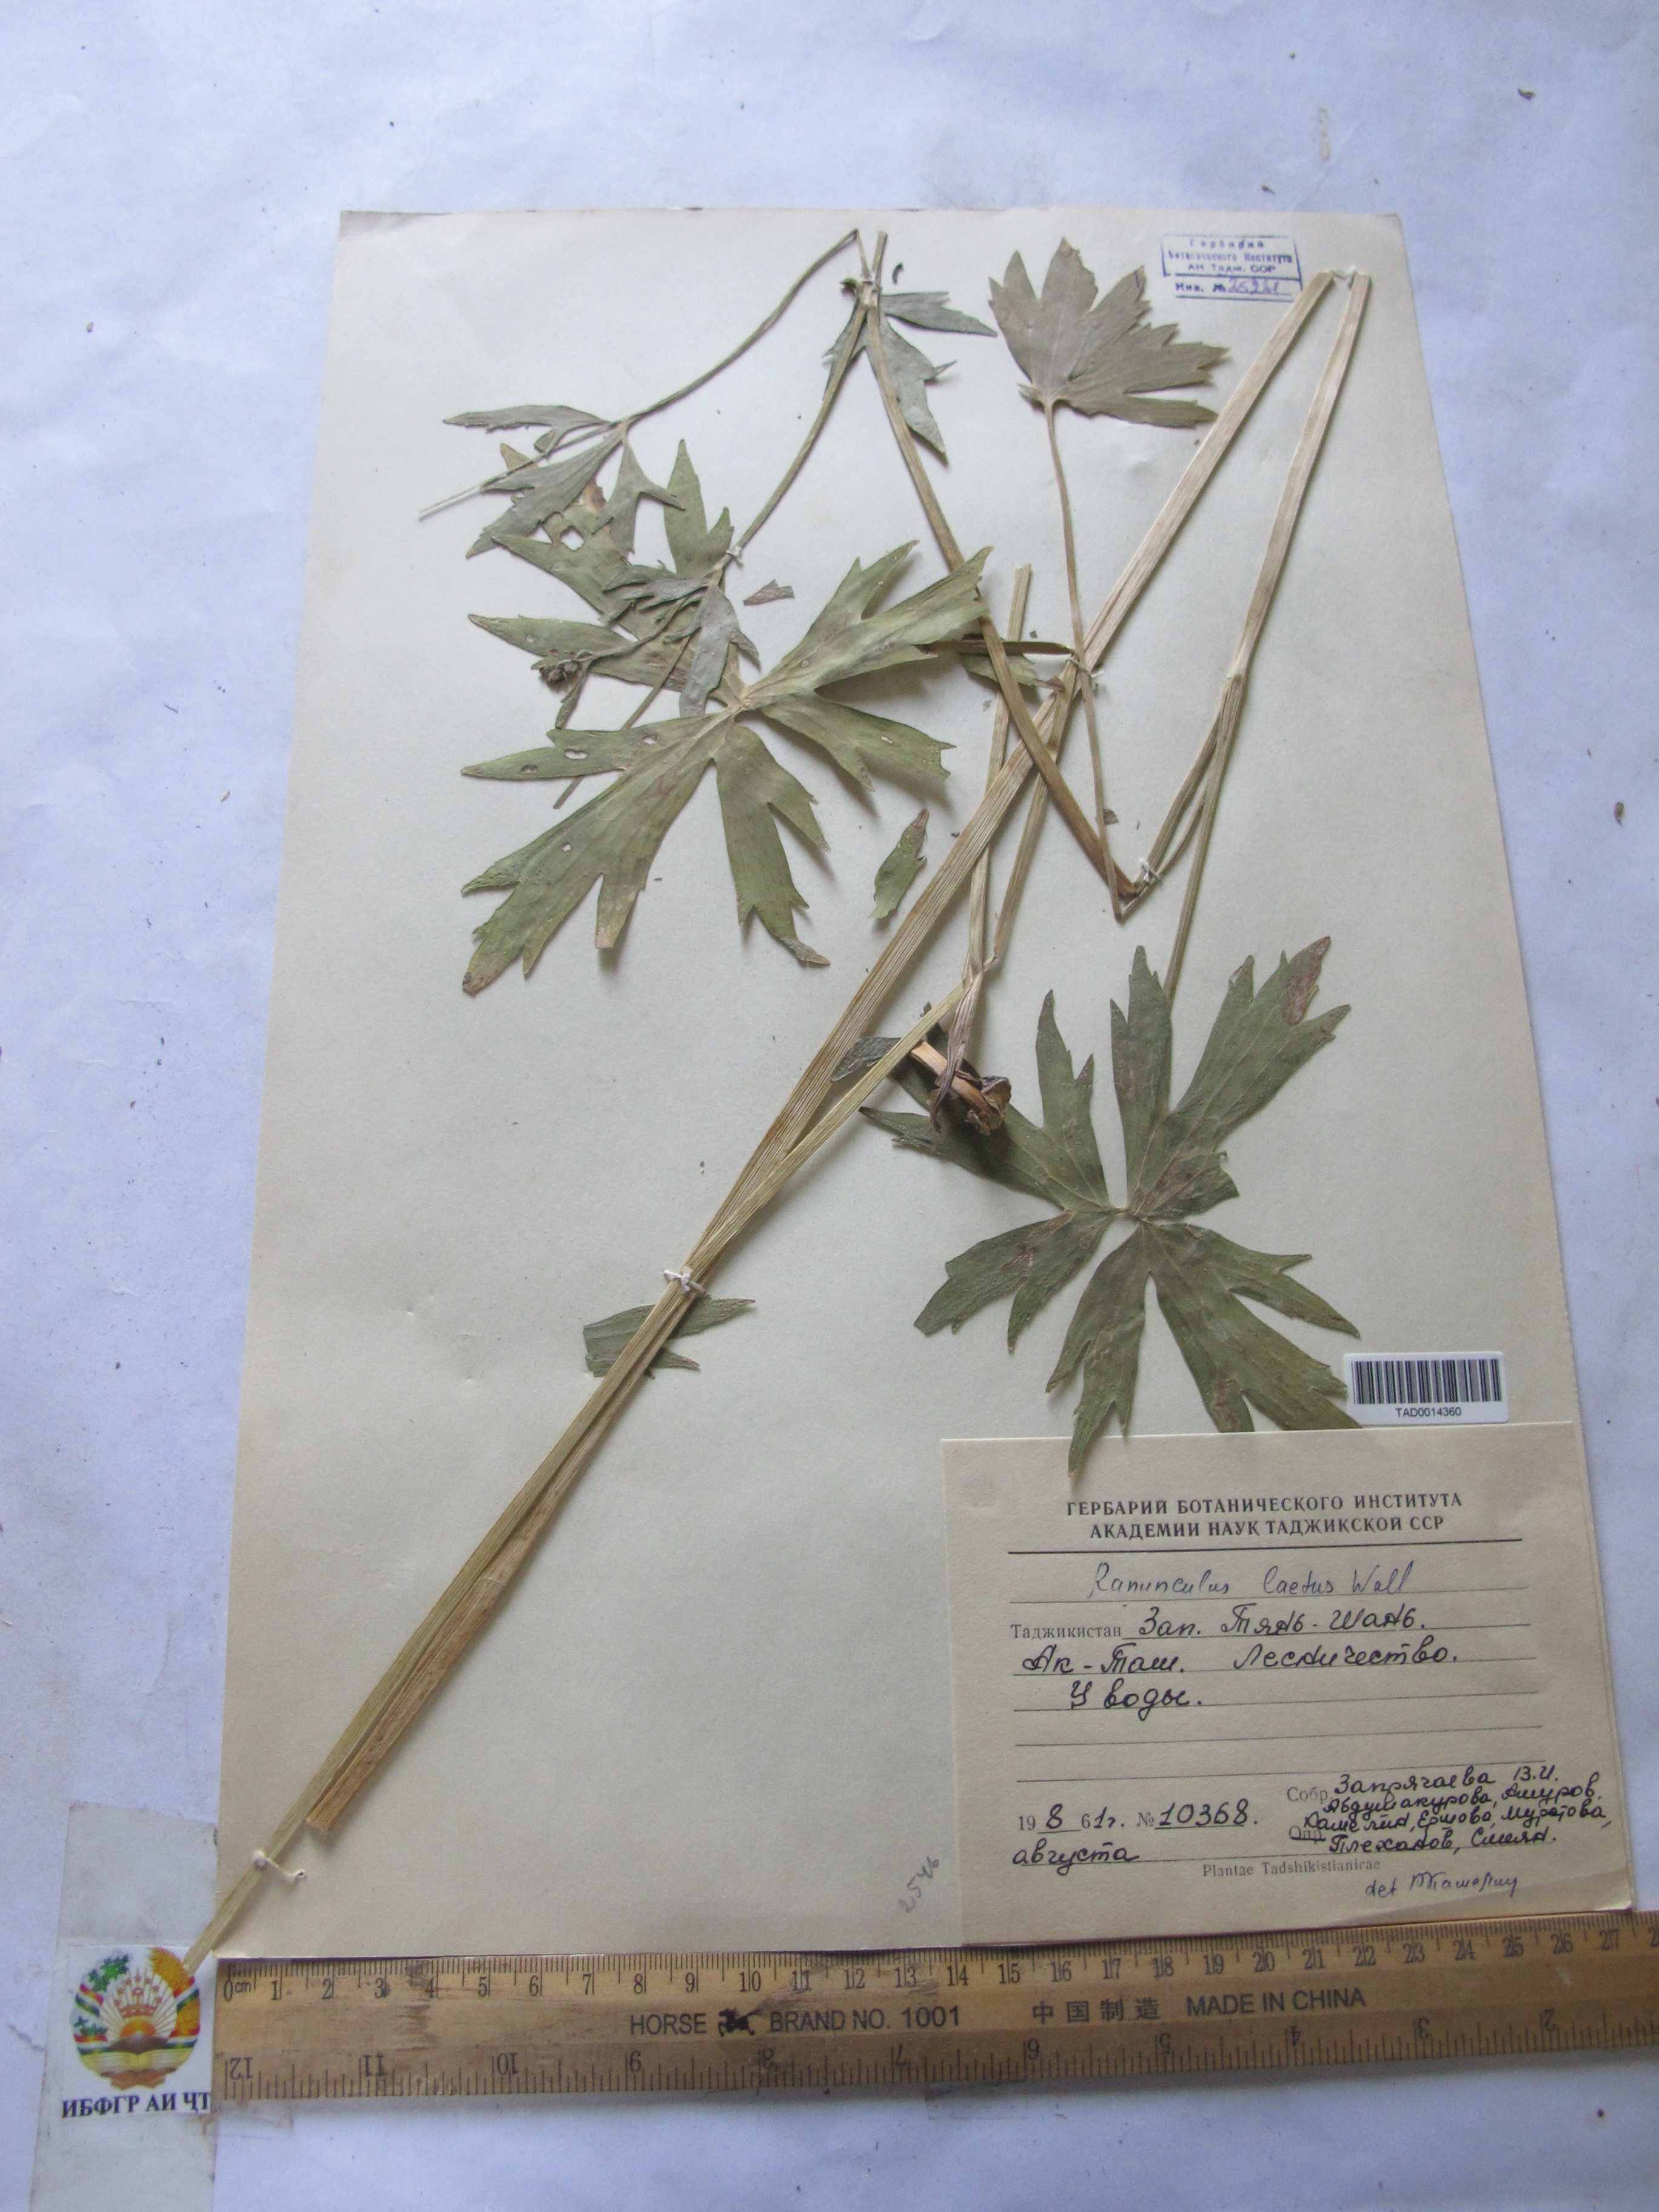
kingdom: Plantae
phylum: Tracheophyta
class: Magnoliopsida
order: Ranunculales
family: Ranunculaceae
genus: Ranunculus
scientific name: Ranunculus distans
